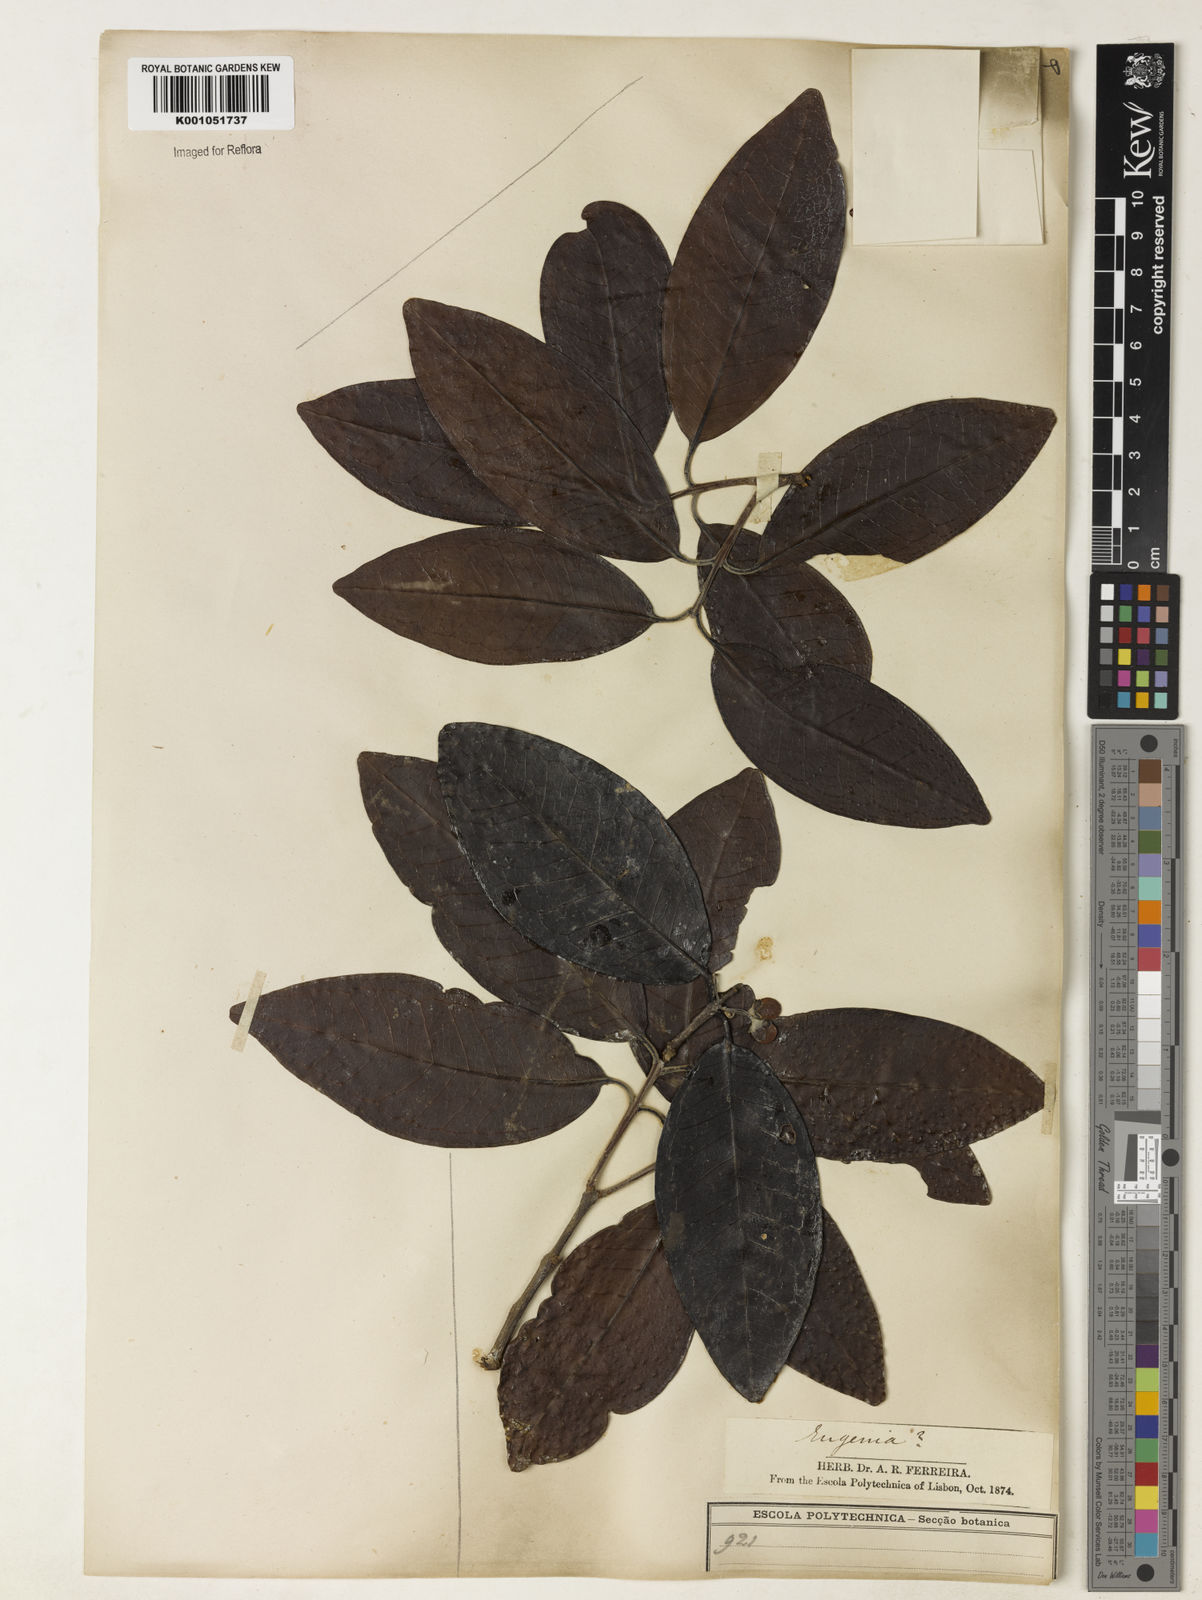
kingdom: Plantae
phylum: Tracheophyta
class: Magnoliopsida
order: Myrtales
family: Myrtaceae
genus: Eugenia
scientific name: Eugenia gomesiana
